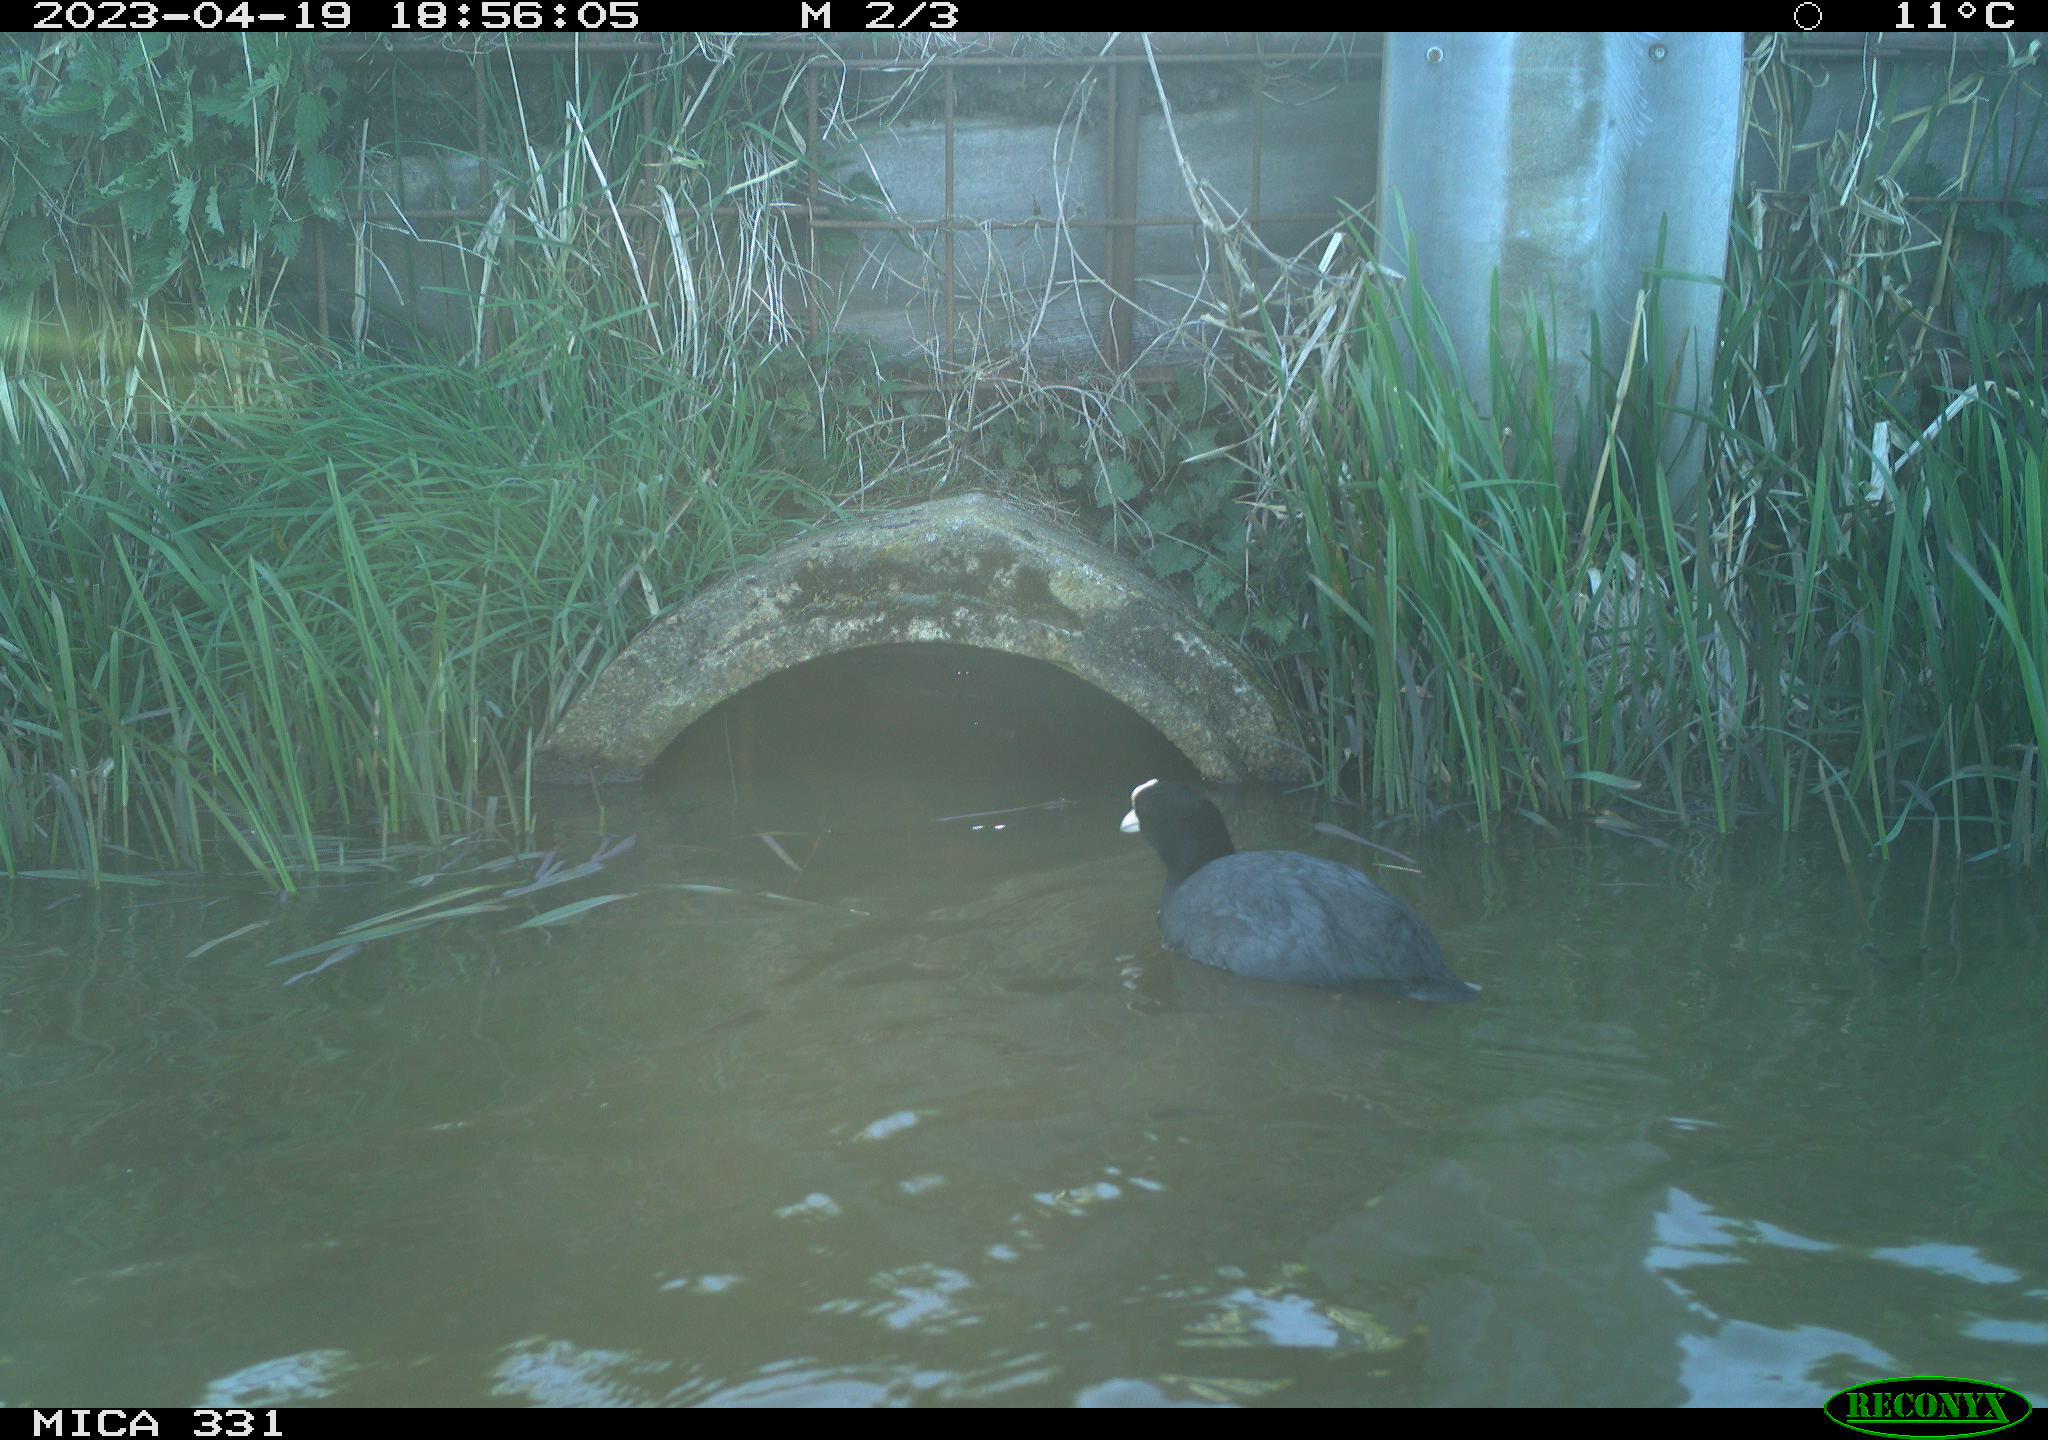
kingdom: Animalia
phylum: Chordata
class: Aves
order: Gruiformes
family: Rallidae
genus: Fulica
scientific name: Fulica atra
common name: Eurasian coot
